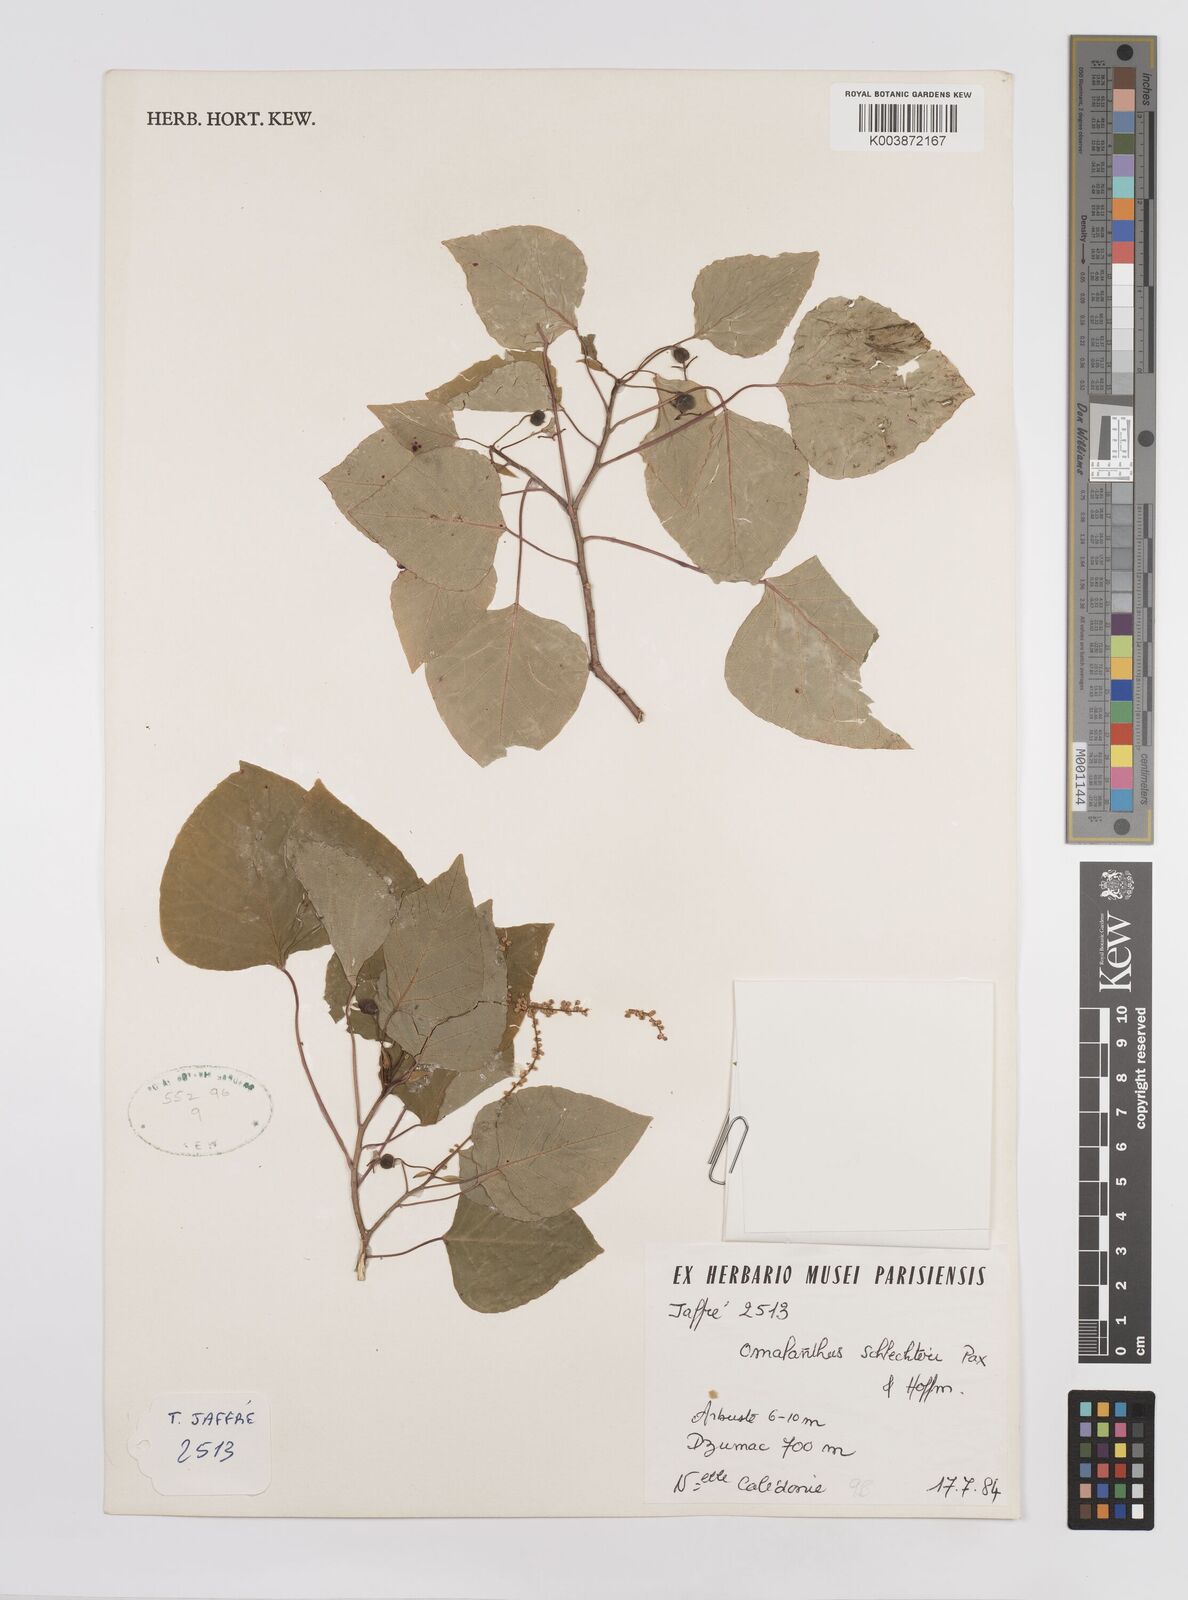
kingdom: Plantae
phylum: Tracheophyta
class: Magnoliopsida
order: Malpighiales
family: Euphorbiaceae
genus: Homalanthus
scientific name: Homalanthus schlechteri
